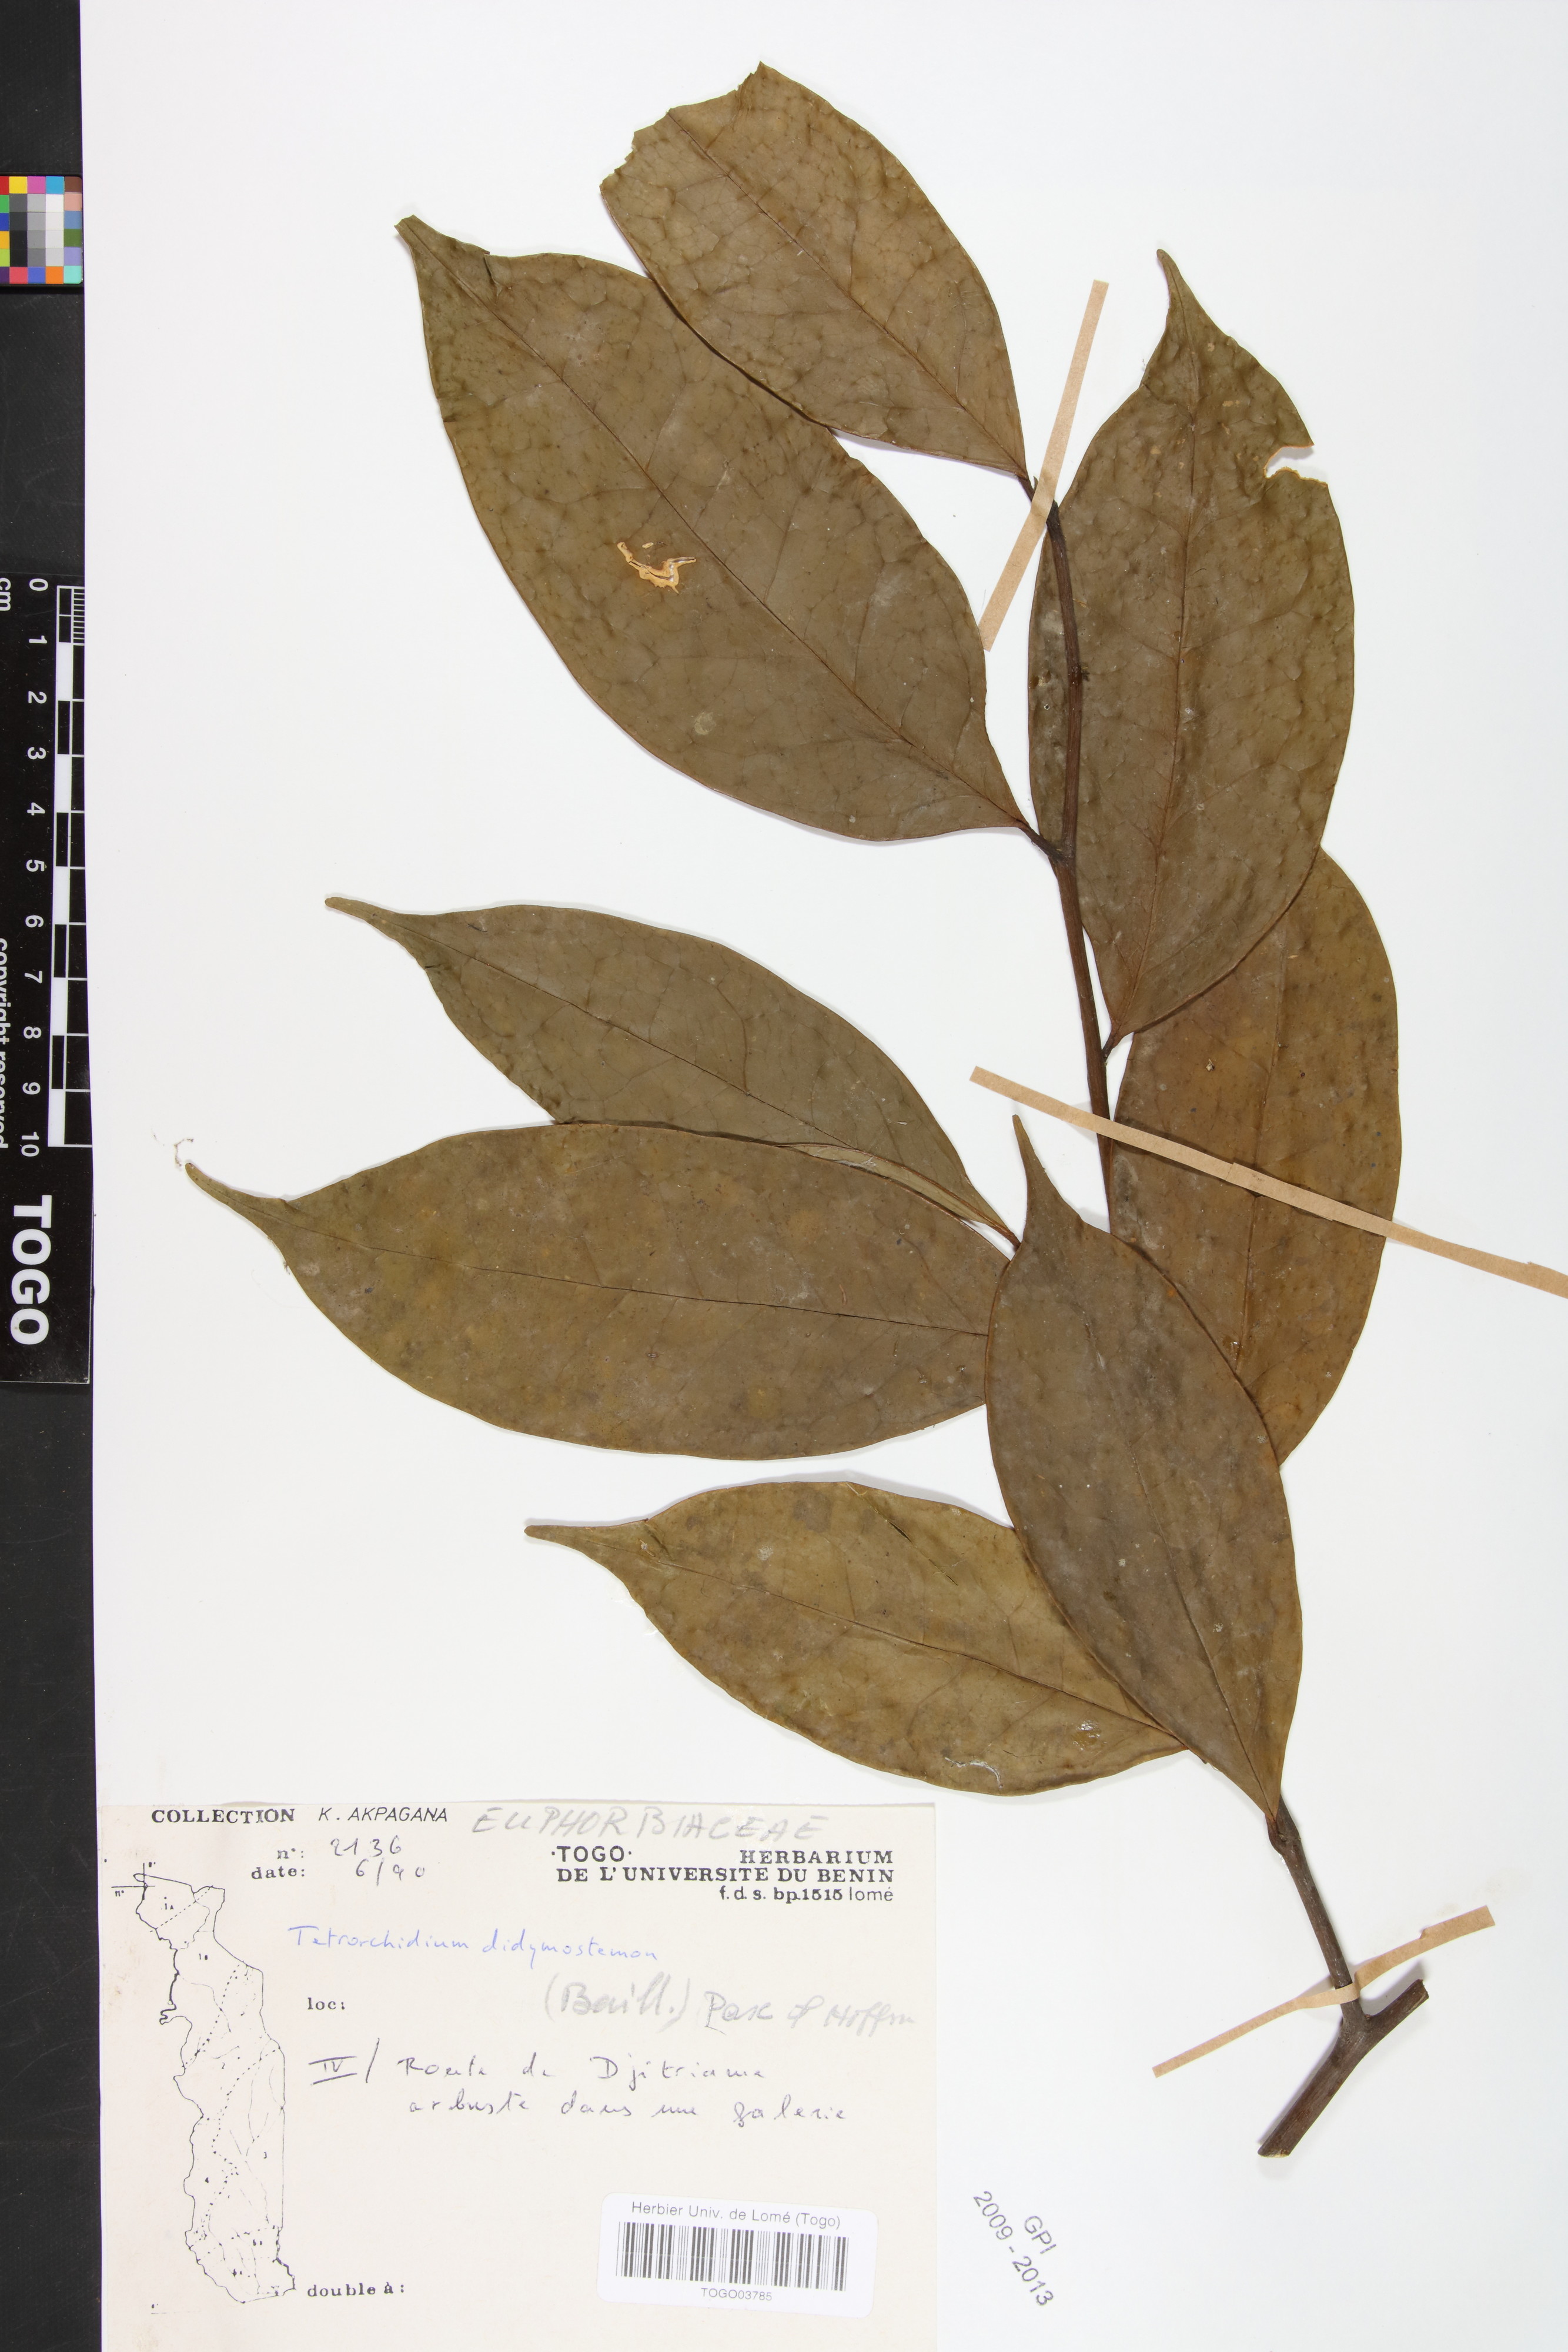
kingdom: Plantae
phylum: Tracheophyta
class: Magnoliopsida
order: Malpighiales
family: Euphorbiaceae
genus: Tetrorchidium
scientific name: Tetrorchidium didymostemon
